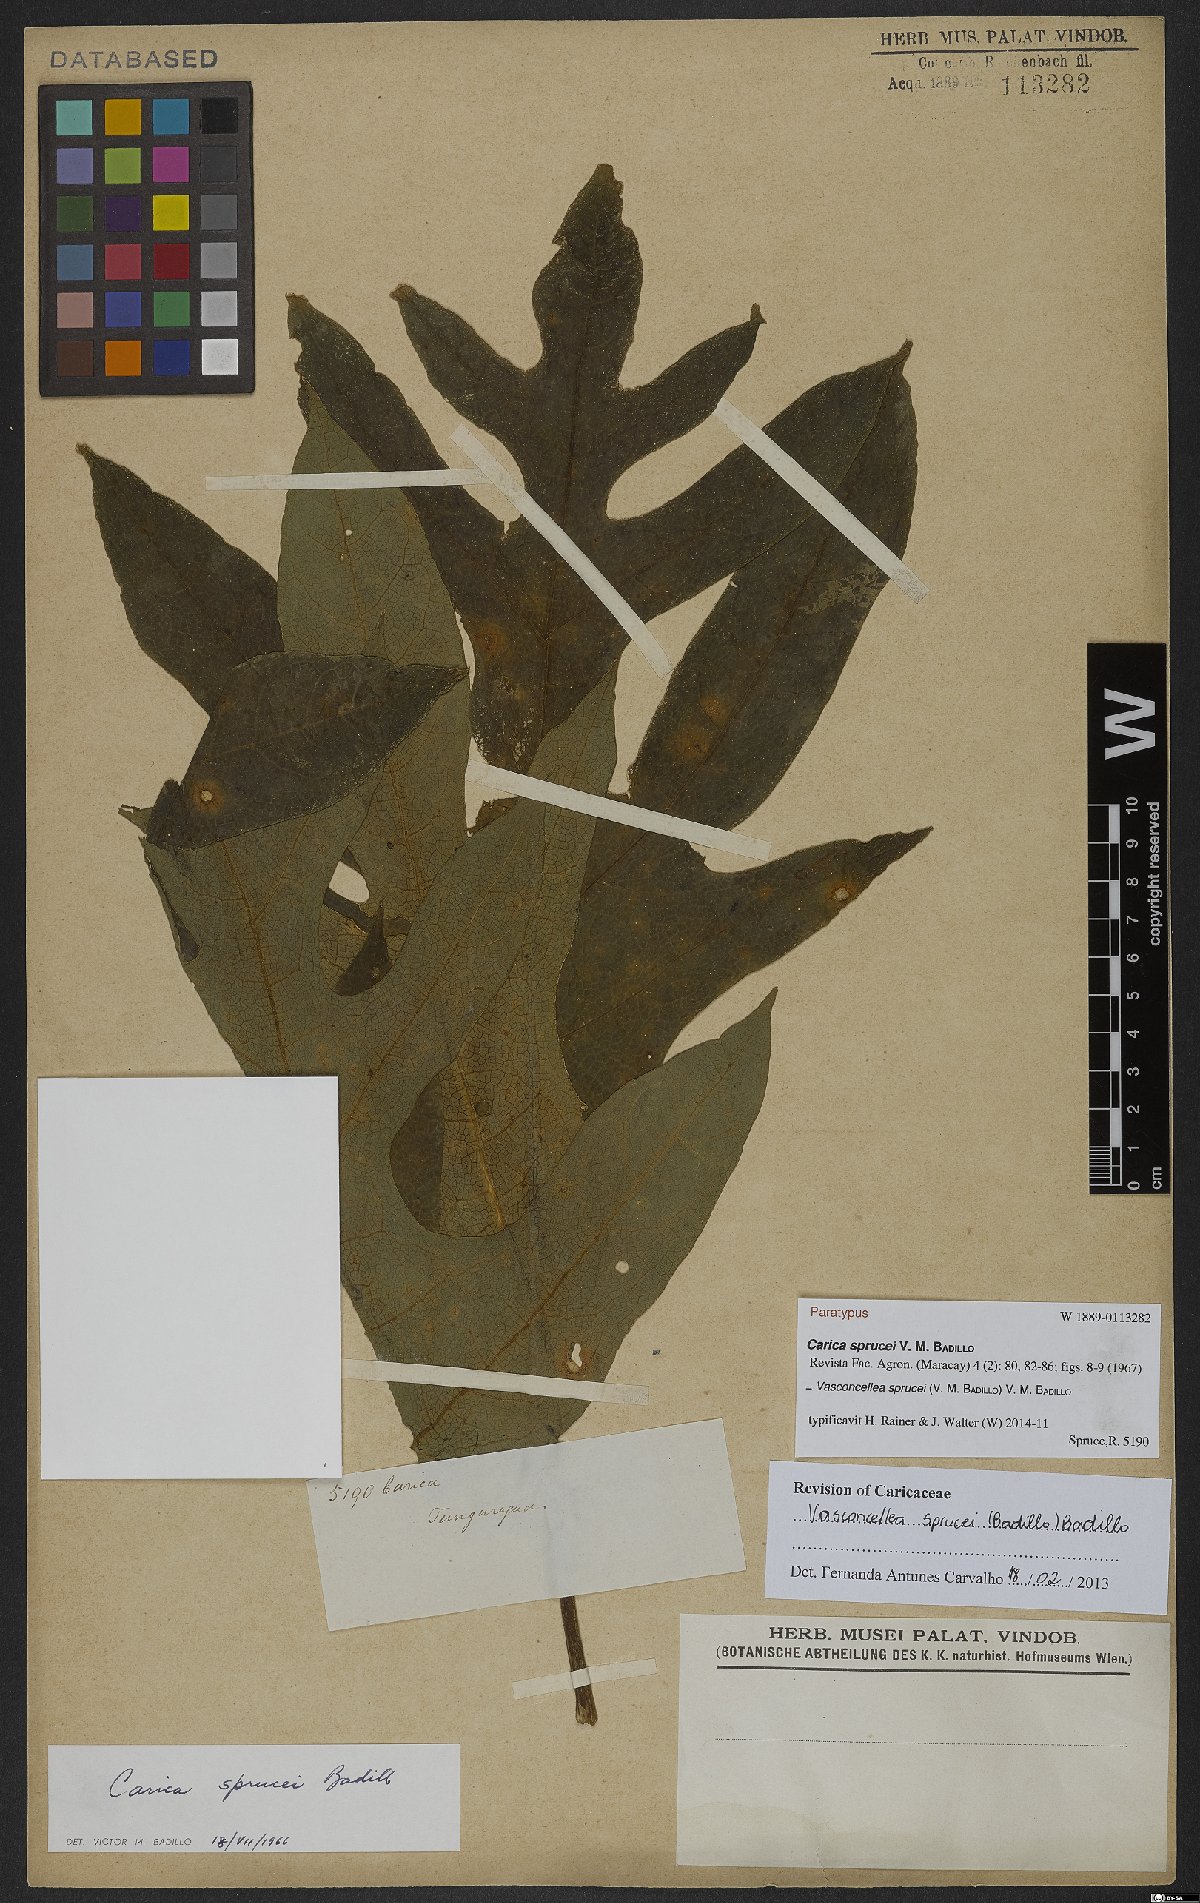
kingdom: Plantae
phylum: Tracheophyta
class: Magnoliopsida
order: Brassicales
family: Caricaceae
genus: Vasconcellea
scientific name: Vasconcellea sprucei
